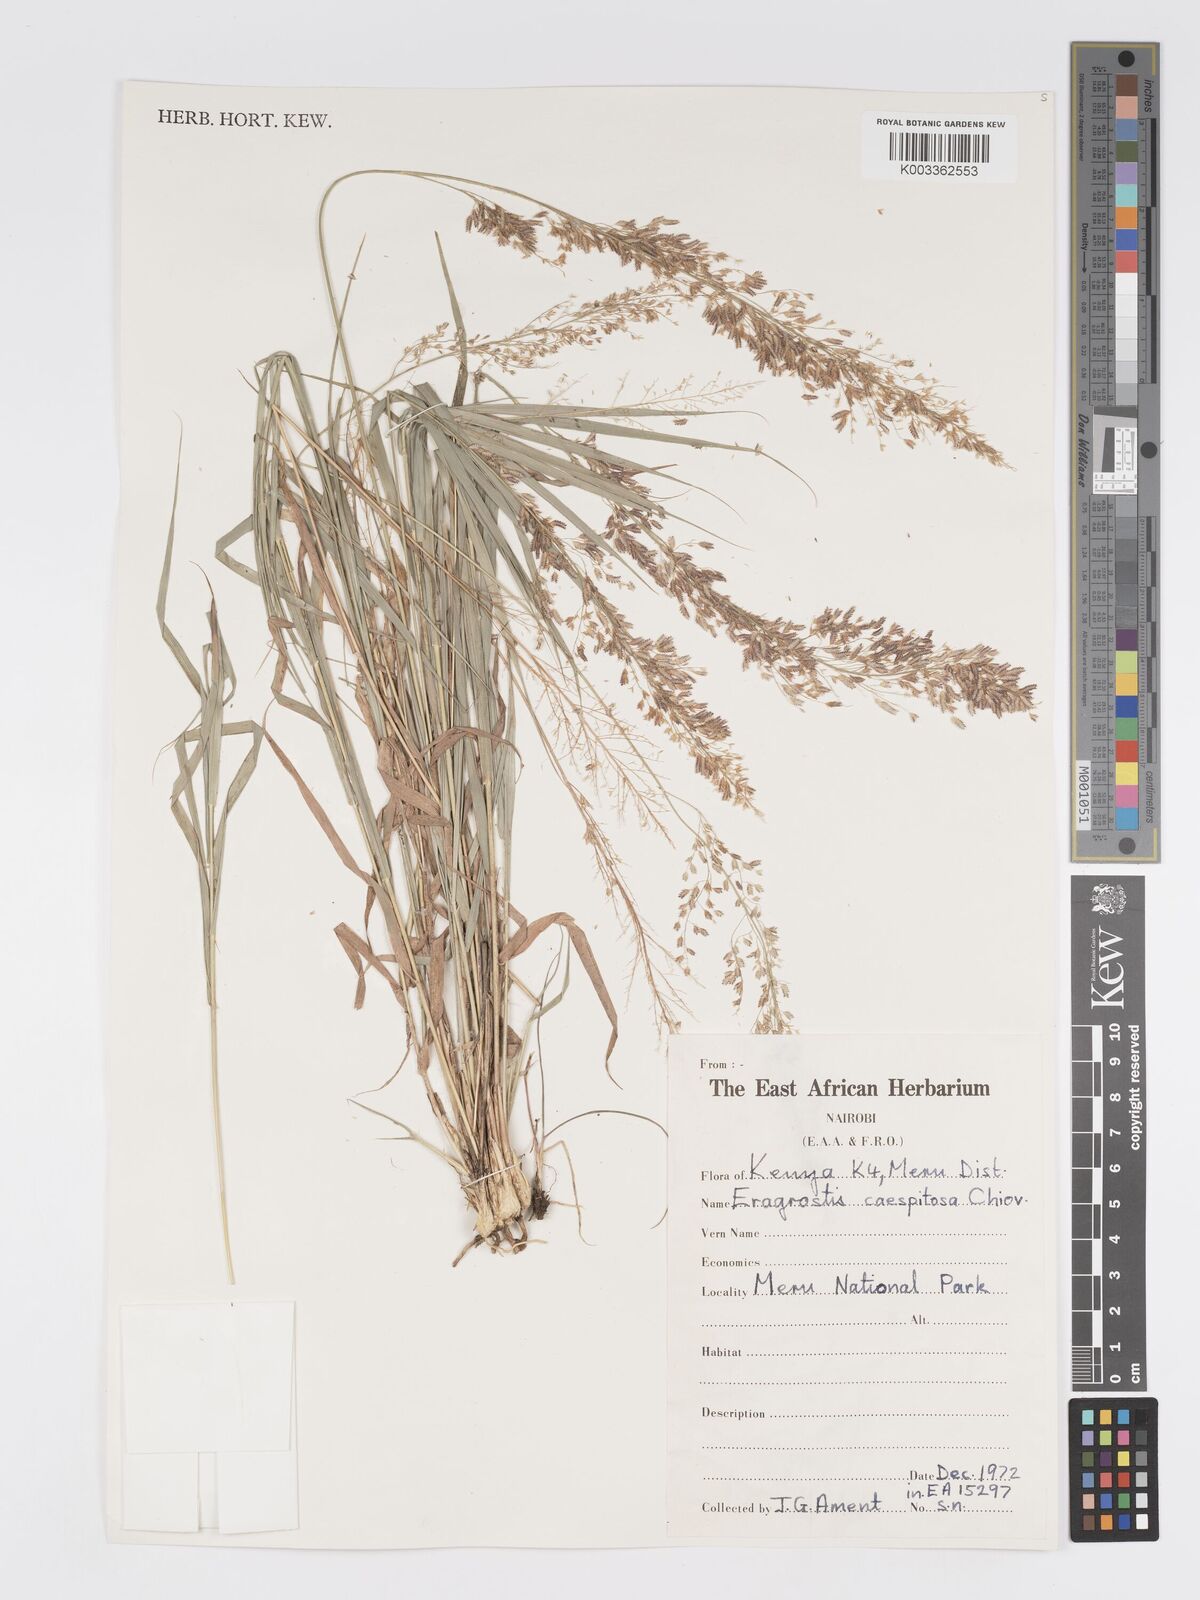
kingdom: Plantae
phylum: Tracheophyta
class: Liliopsida
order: Poales
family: Poaceae
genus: Eragrostis
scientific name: Eragrostis caespitosa
